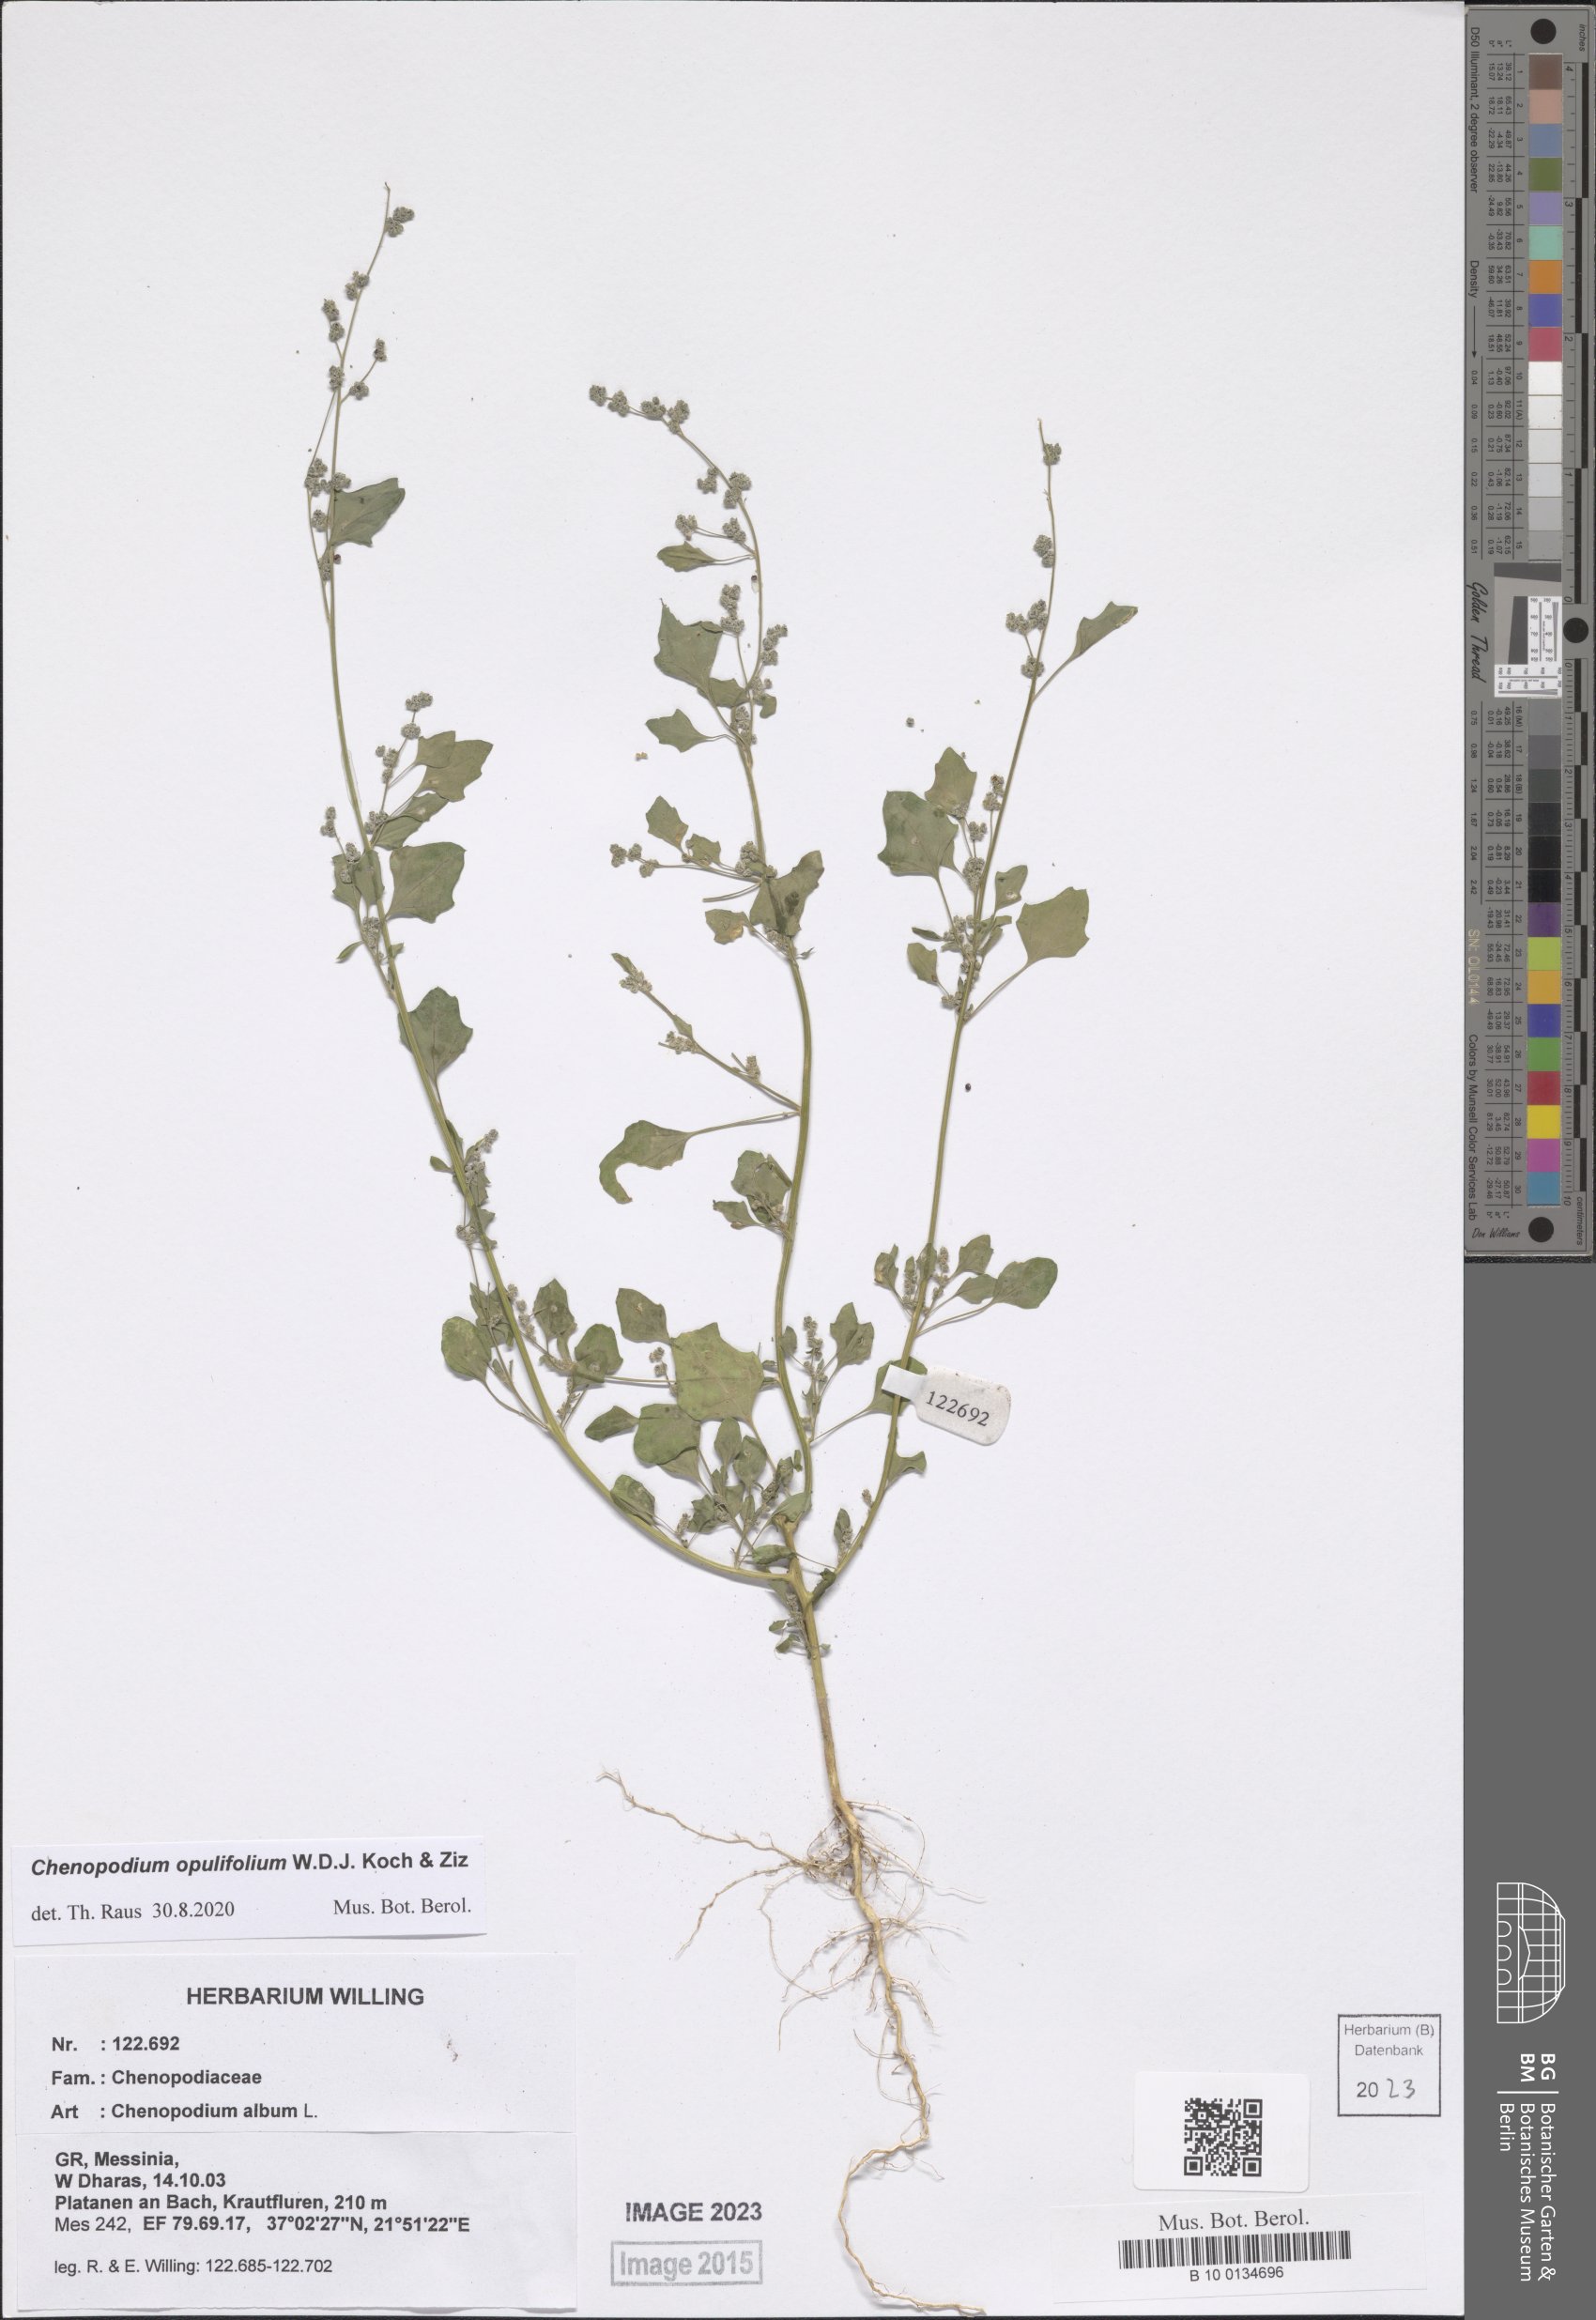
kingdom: Plantae
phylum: Tracheophyta
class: Magnoliopsida
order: Caryophyllales
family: Amaranthaceae
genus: Chenopodium
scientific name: Chenopodium opulifolium
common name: Grey goosefoot
